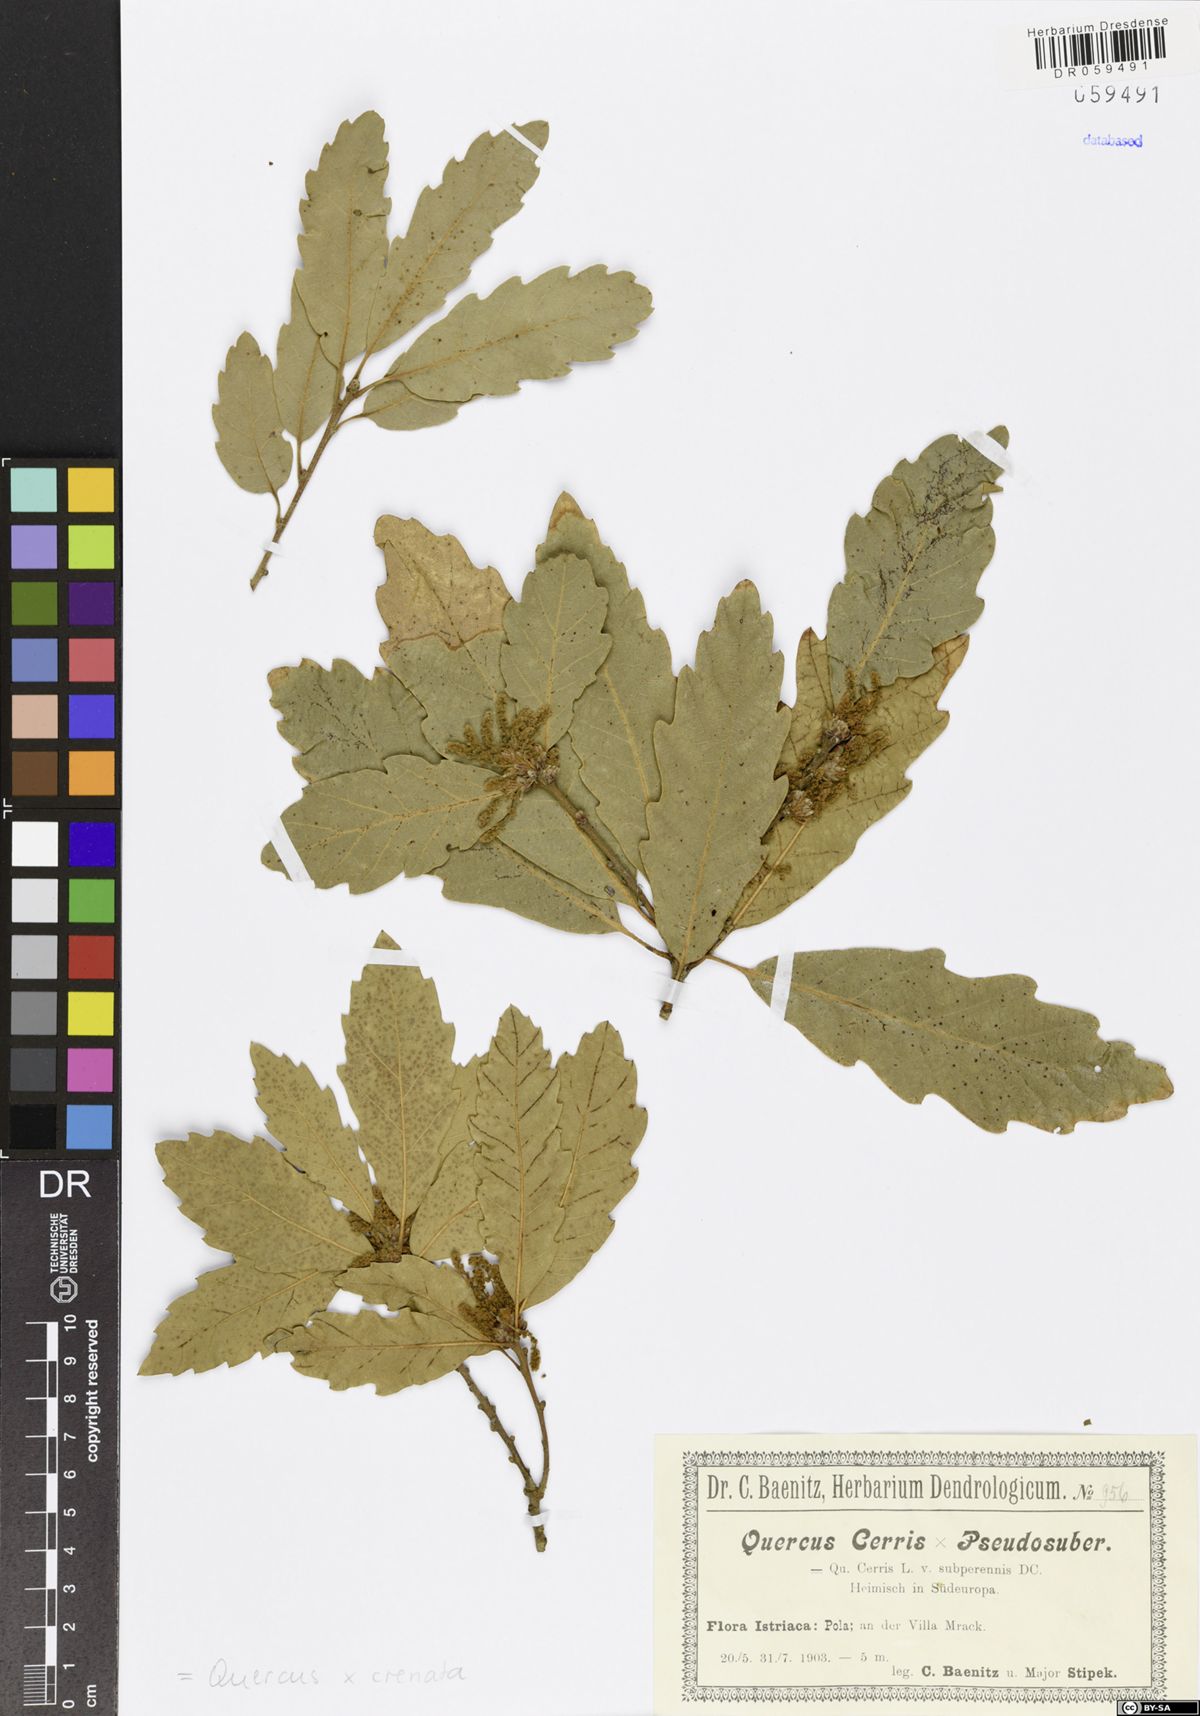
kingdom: Plantae
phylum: Tracheophyta
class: Magnoliopsida
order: Fagales
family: Fagaceae
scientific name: Fagaceae
